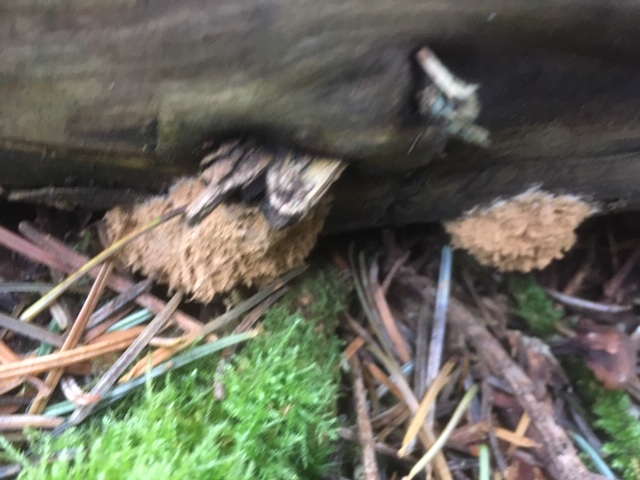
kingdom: Fungi
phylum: Basidiomycota
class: Agaricomycetes
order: Polyporales
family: Dacryobolaceae
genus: Postia
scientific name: Postia ptychogaster
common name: støvende kødporesvamp
